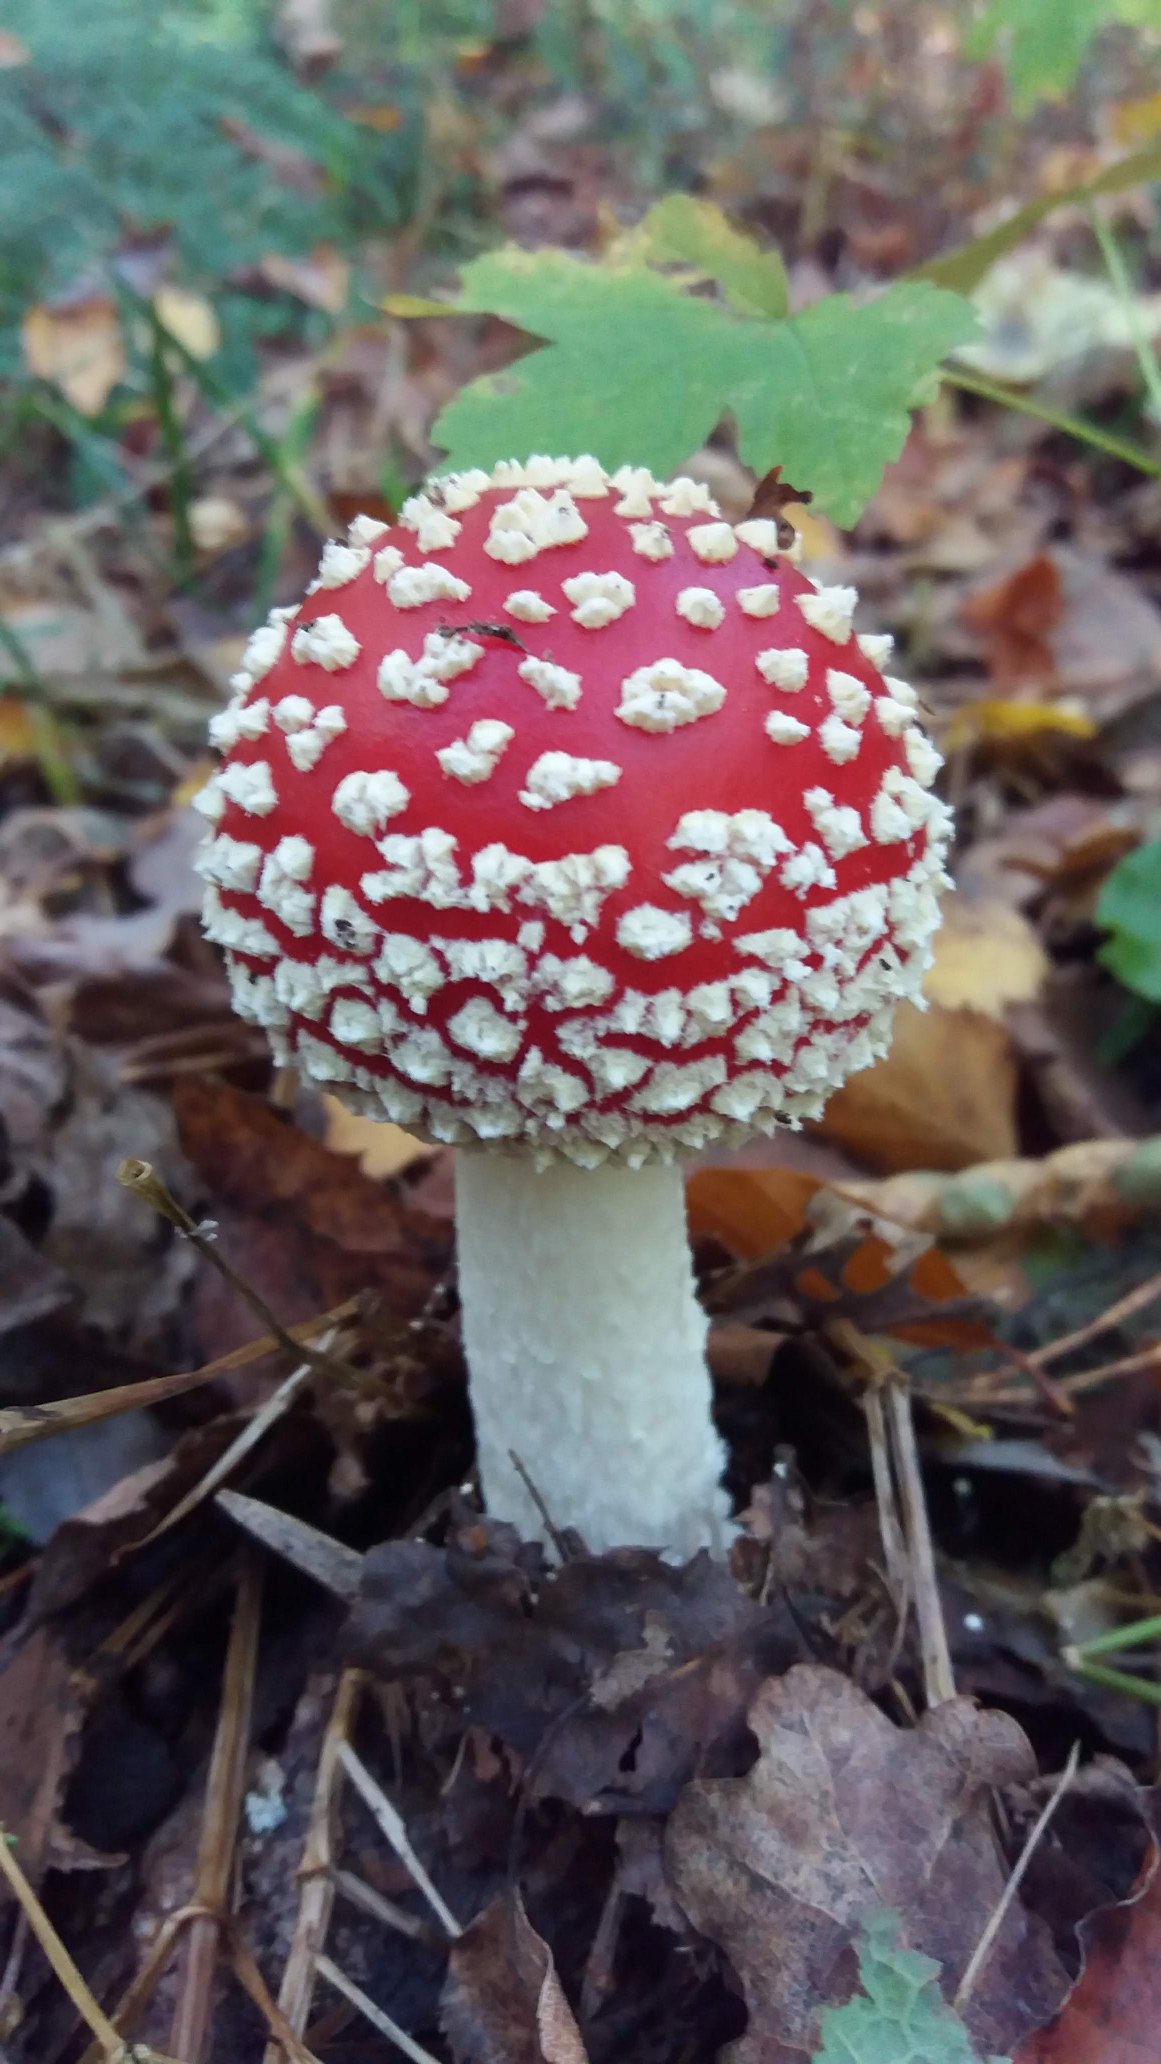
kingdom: Fungi
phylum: Basidiomycota
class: Agaricomycetes
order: Agaricales
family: Amanitaceae
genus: Amanita
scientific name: Amanita muscaria
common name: Rød fluesvamp
